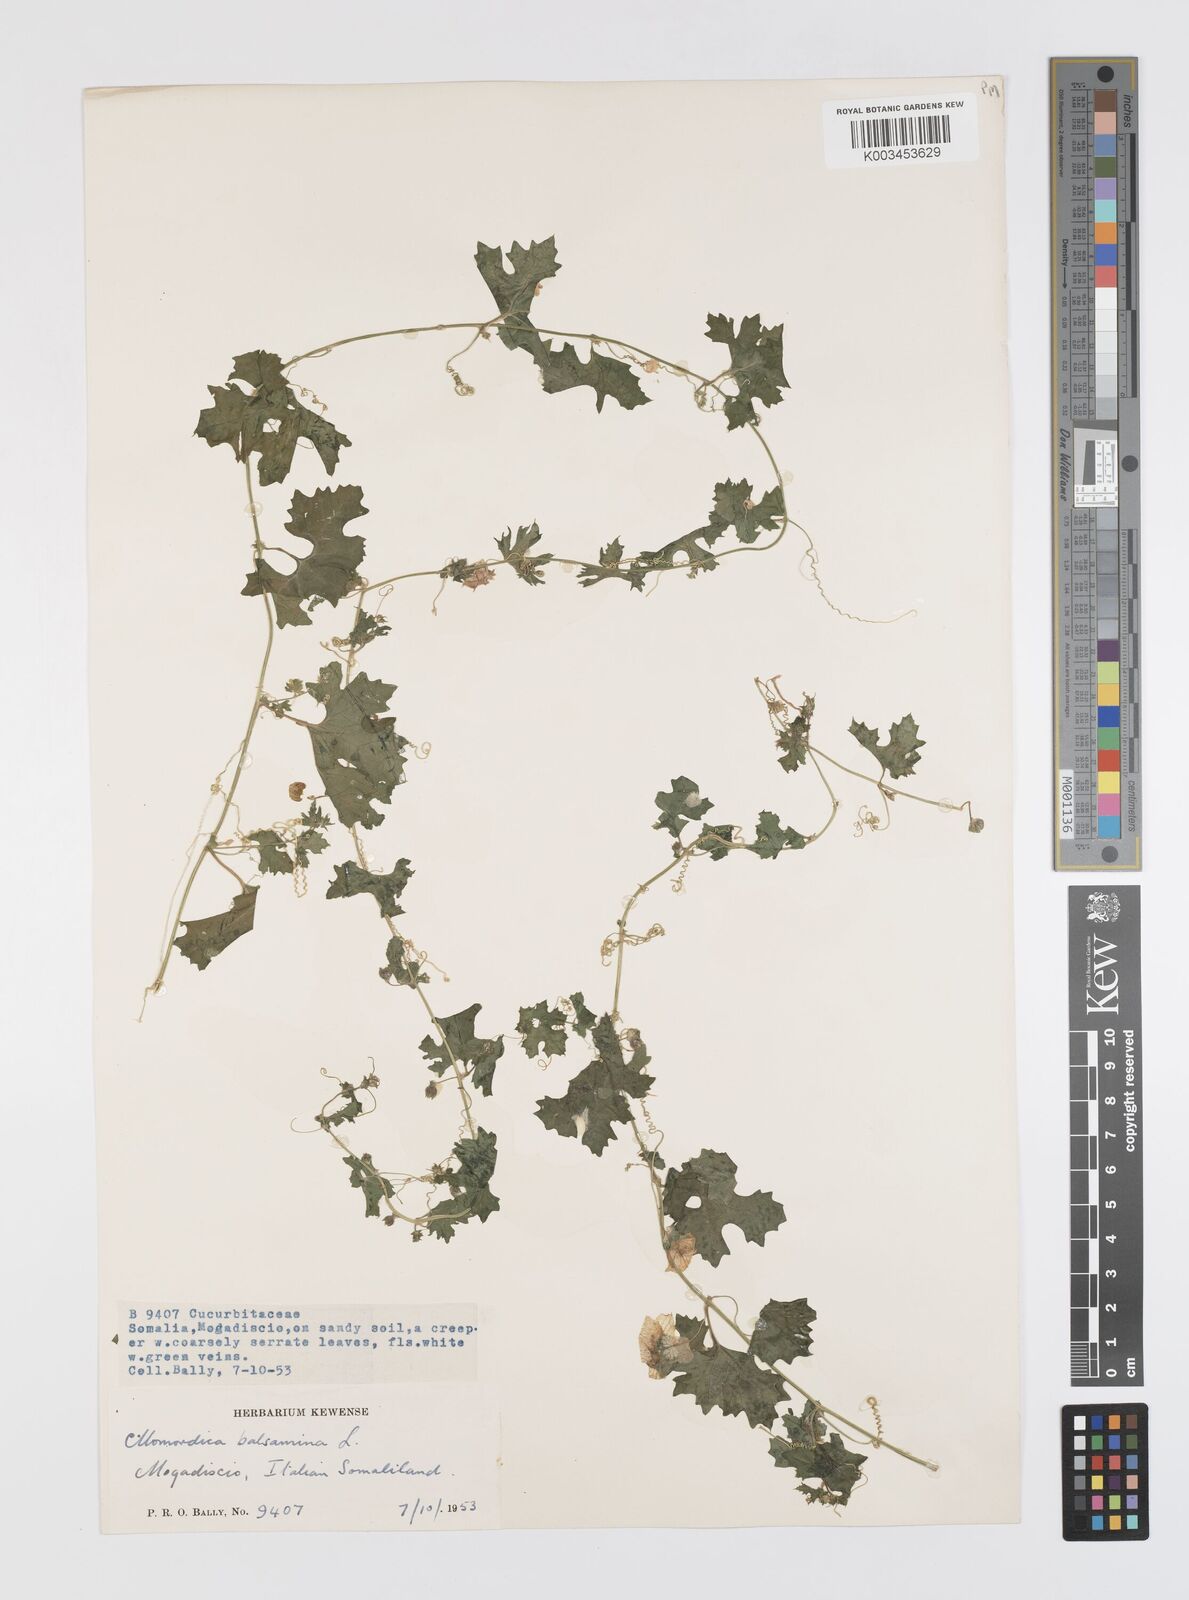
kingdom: Plantae
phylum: Tracheophyta
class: Magnoliopsida
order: Cucurbitales
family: Cucurbitaceae
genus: Momordica
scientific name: Momordica balsamina
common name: Southern balsampear
